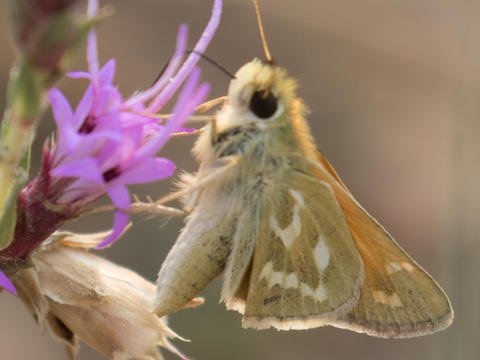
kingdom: Animalia
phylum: Arthropoda
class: Insecta
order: Lepidoptera
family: Hesperiidae
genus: Hesperia
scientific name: Hesperia comma
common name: Western Branded Skipper
